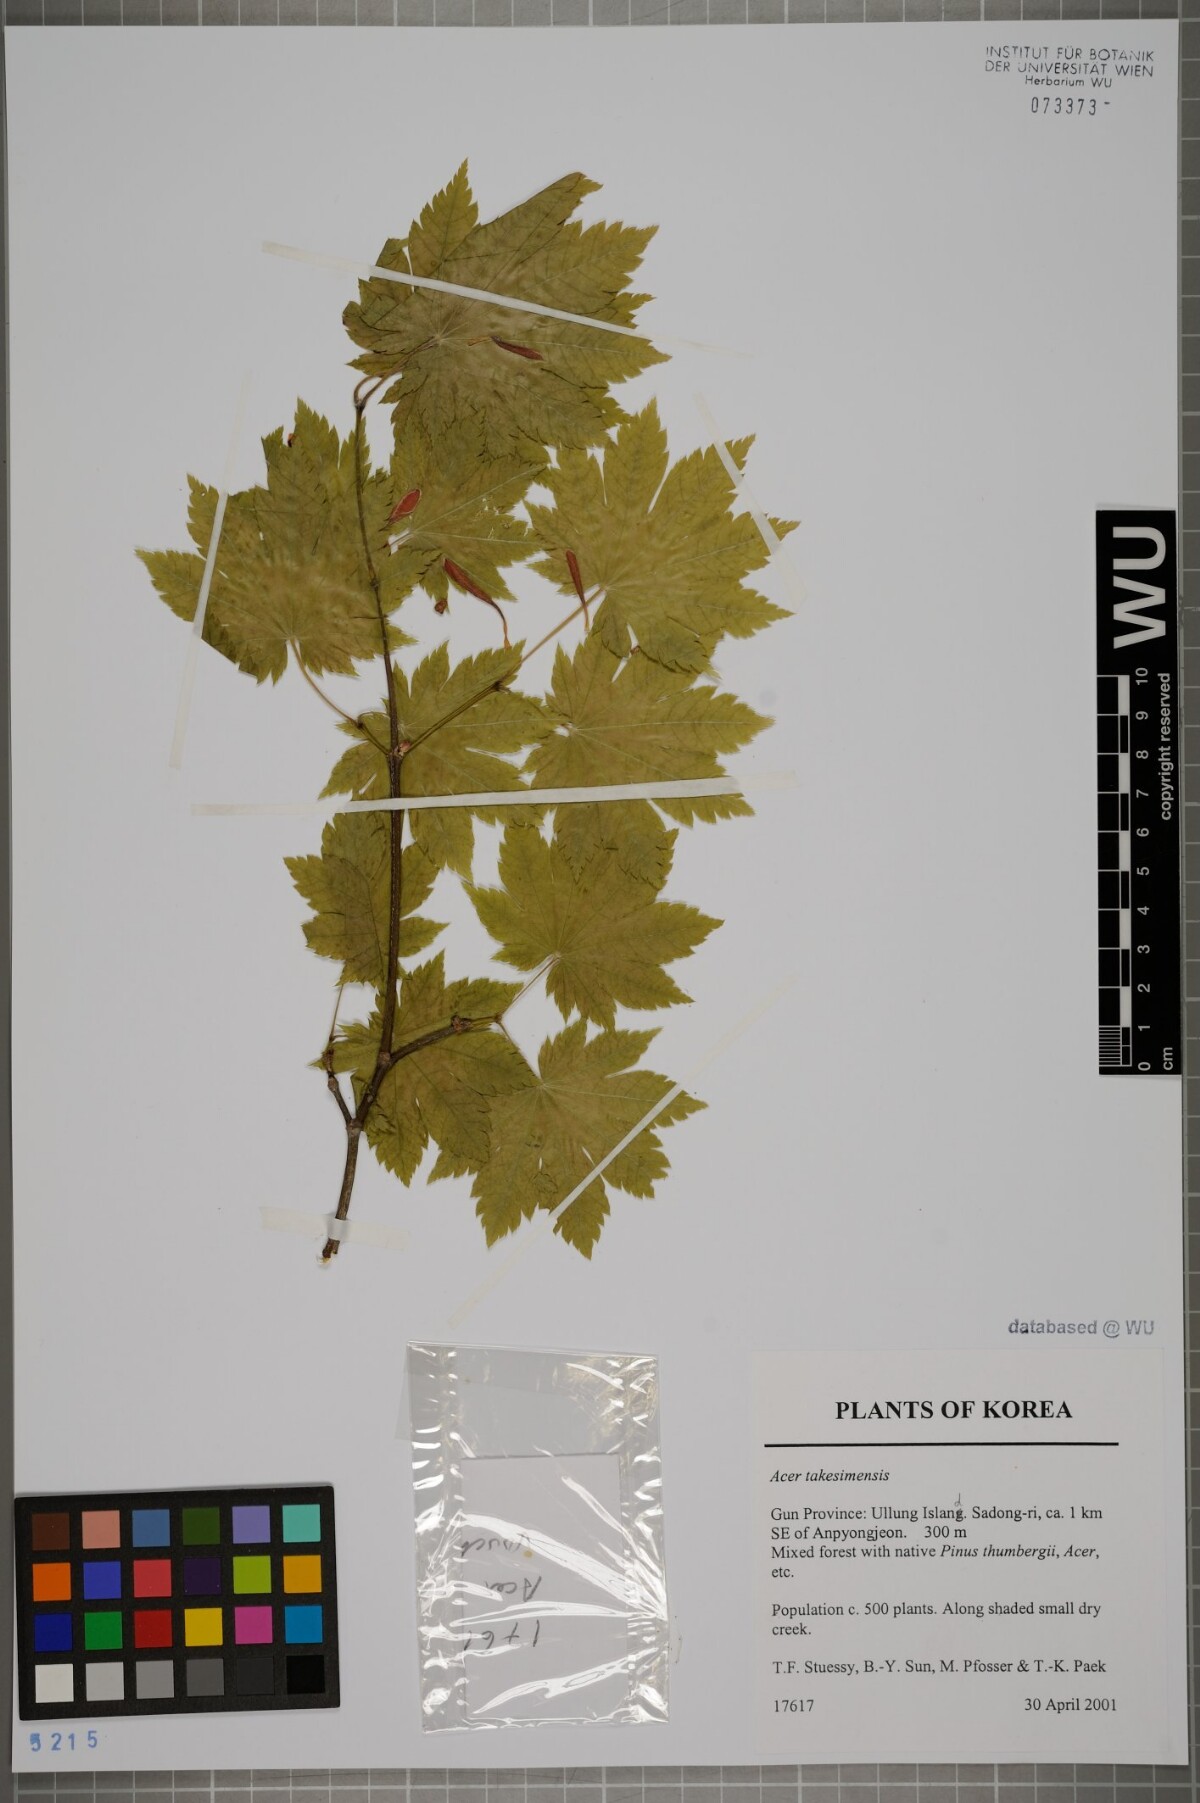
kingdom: Plantae
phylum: Tracheophyta
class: Magnoliopsida
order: Sapindales
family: Sapindaceae
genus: Acer
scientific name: Acer pseudosieboldianum
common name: Korean maple
